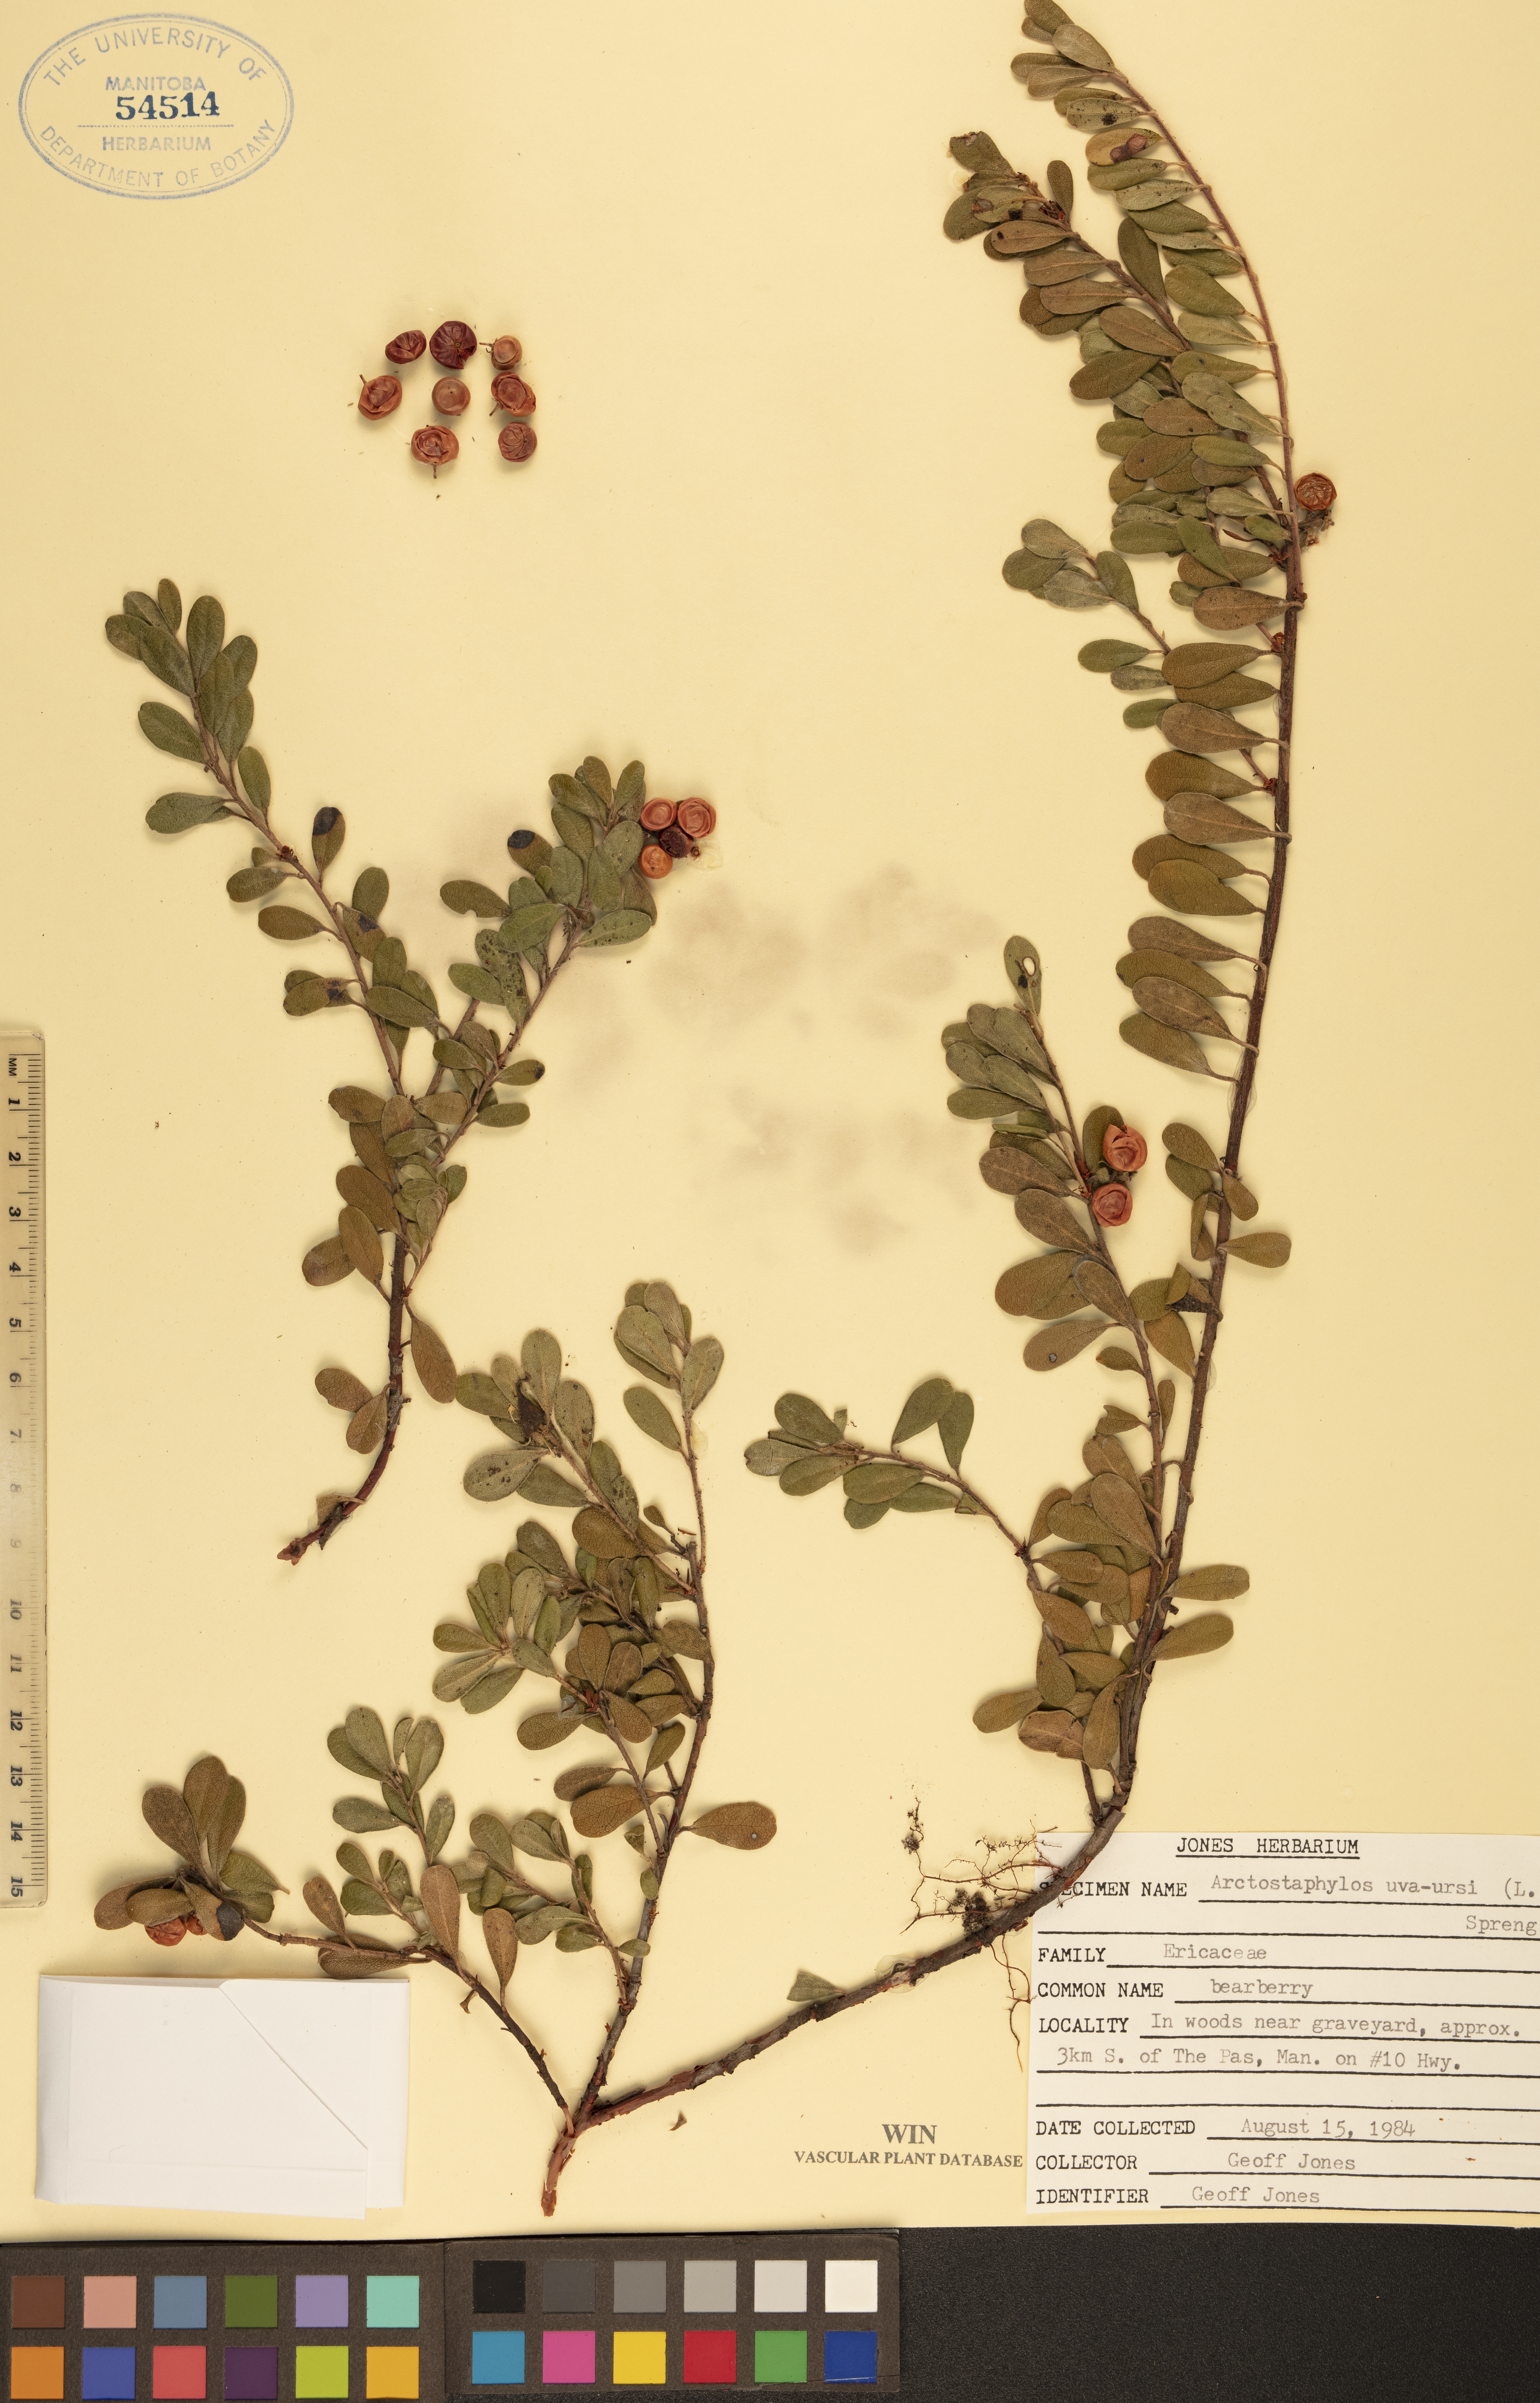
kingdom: Plantae
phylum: Tracheophyta
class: Magnoliopsida
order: Ericales
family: Ericaceae
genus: Arctostaphylos
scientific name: Arctostaphylos uva-ursi
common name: Bearberry
